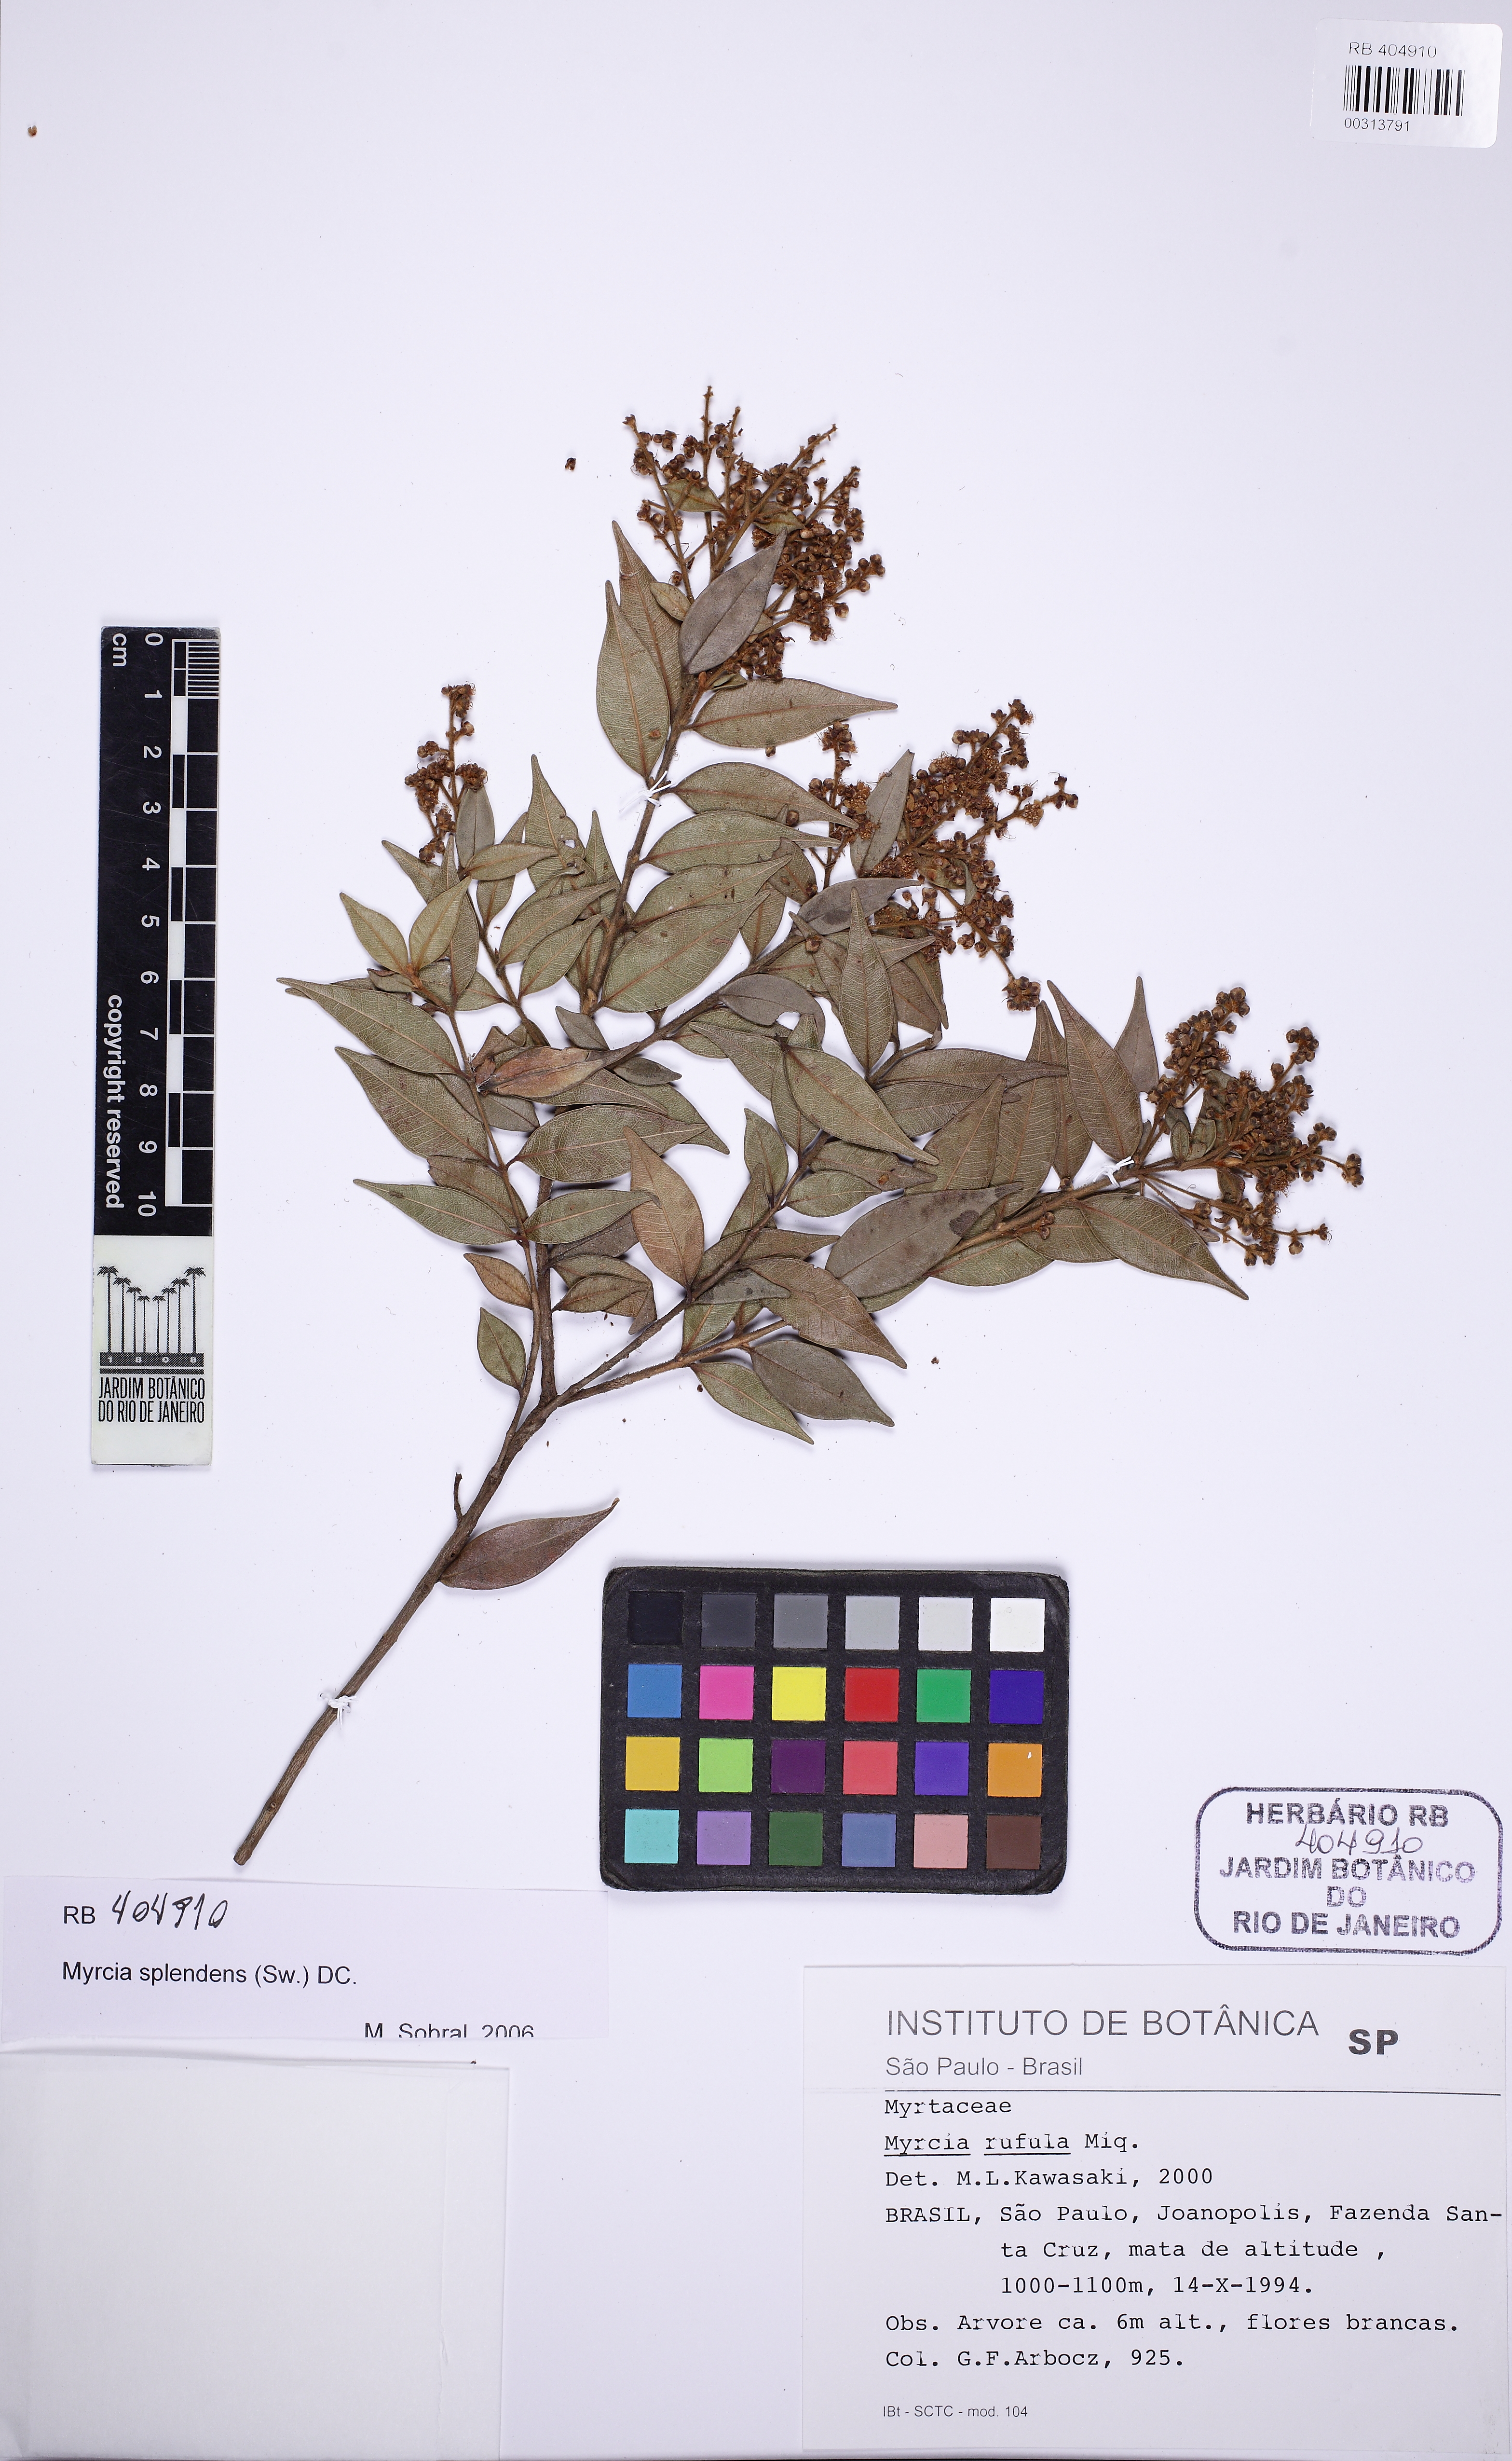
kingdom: Plantae
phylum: Tracheophyta
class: Magnoliopsida
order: Myrtales
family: Myrtaceae
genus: Myrcia
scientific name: Myrcia splendens
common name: Surinam cherry
